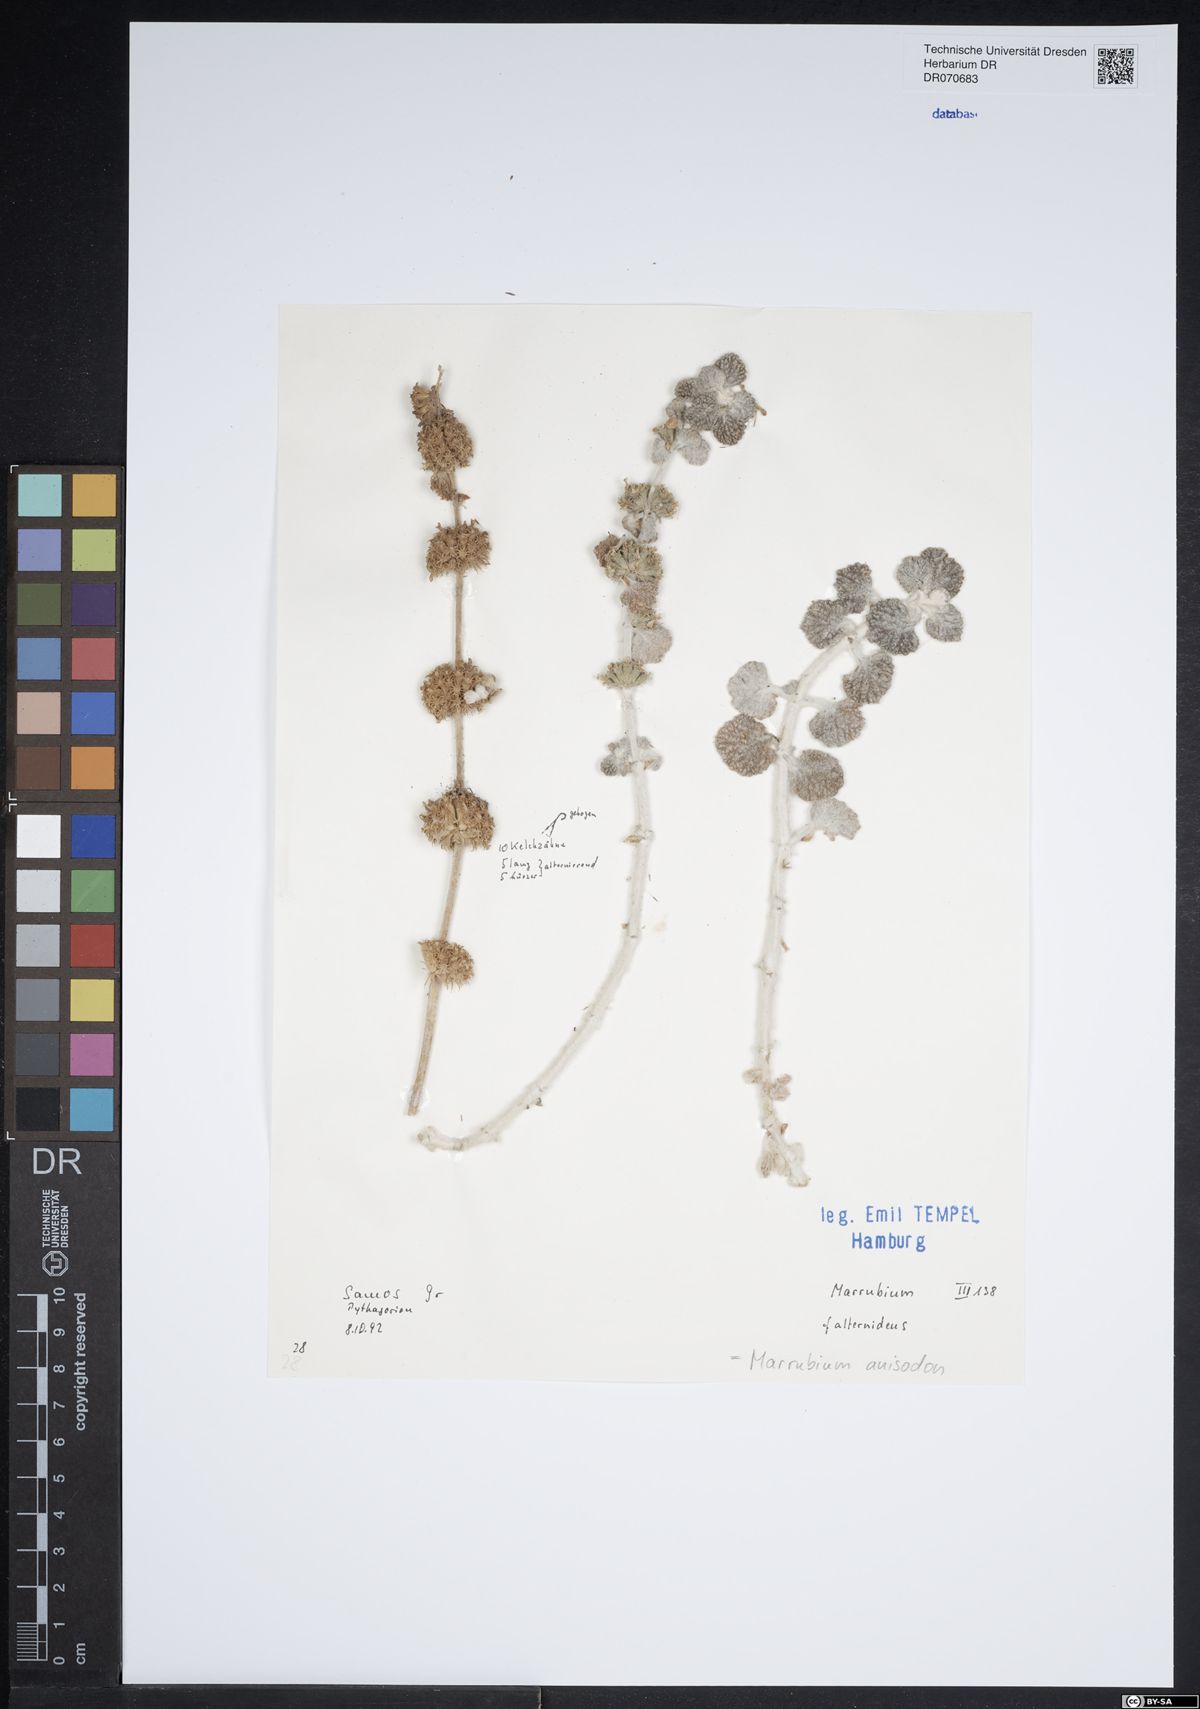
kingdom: Plantae
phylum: Tracheophyta
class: Magnoliopsida
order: Lamiales
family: Lamiaceae
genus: Marrubium
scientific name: Marrubium anisodon
